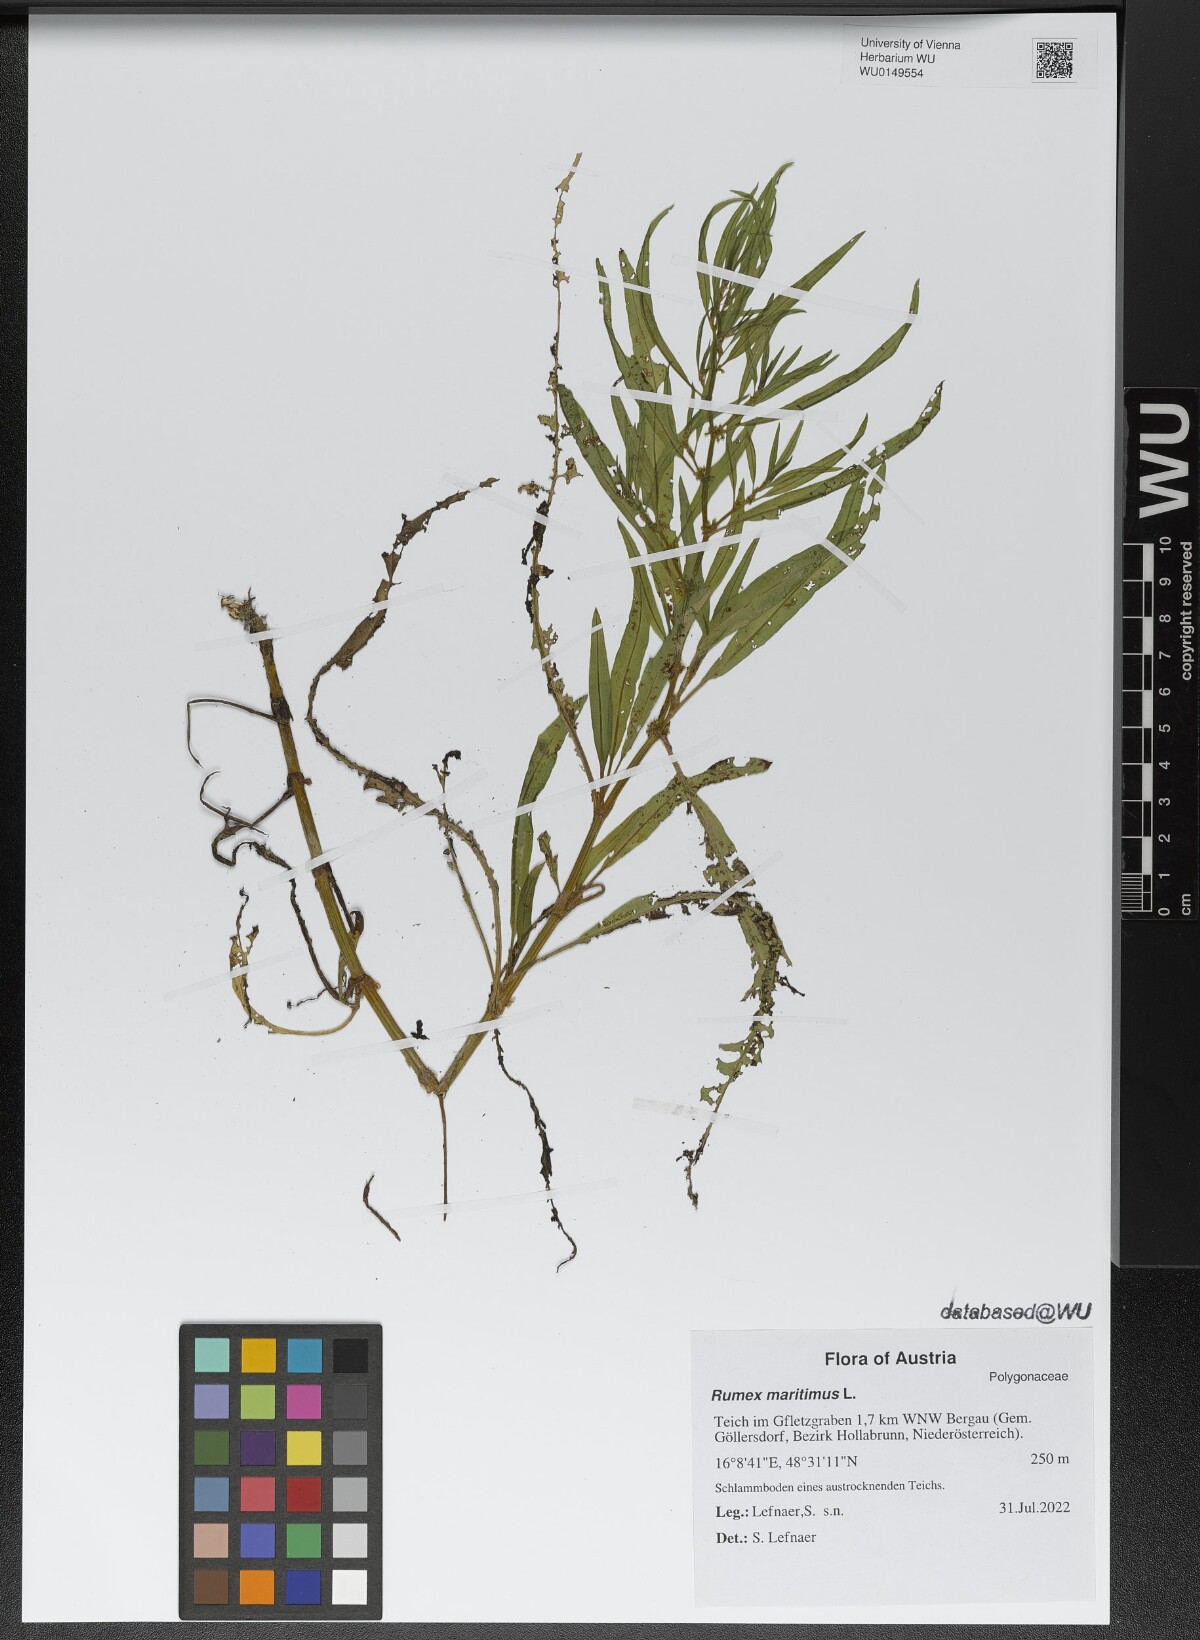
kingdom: Plantae
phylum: Tracheophyta
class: Magnoliopsida
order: Caryophyllales
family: Polygonaceae
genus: Rumex
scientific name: Rumex maritimus
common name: Golden dock
